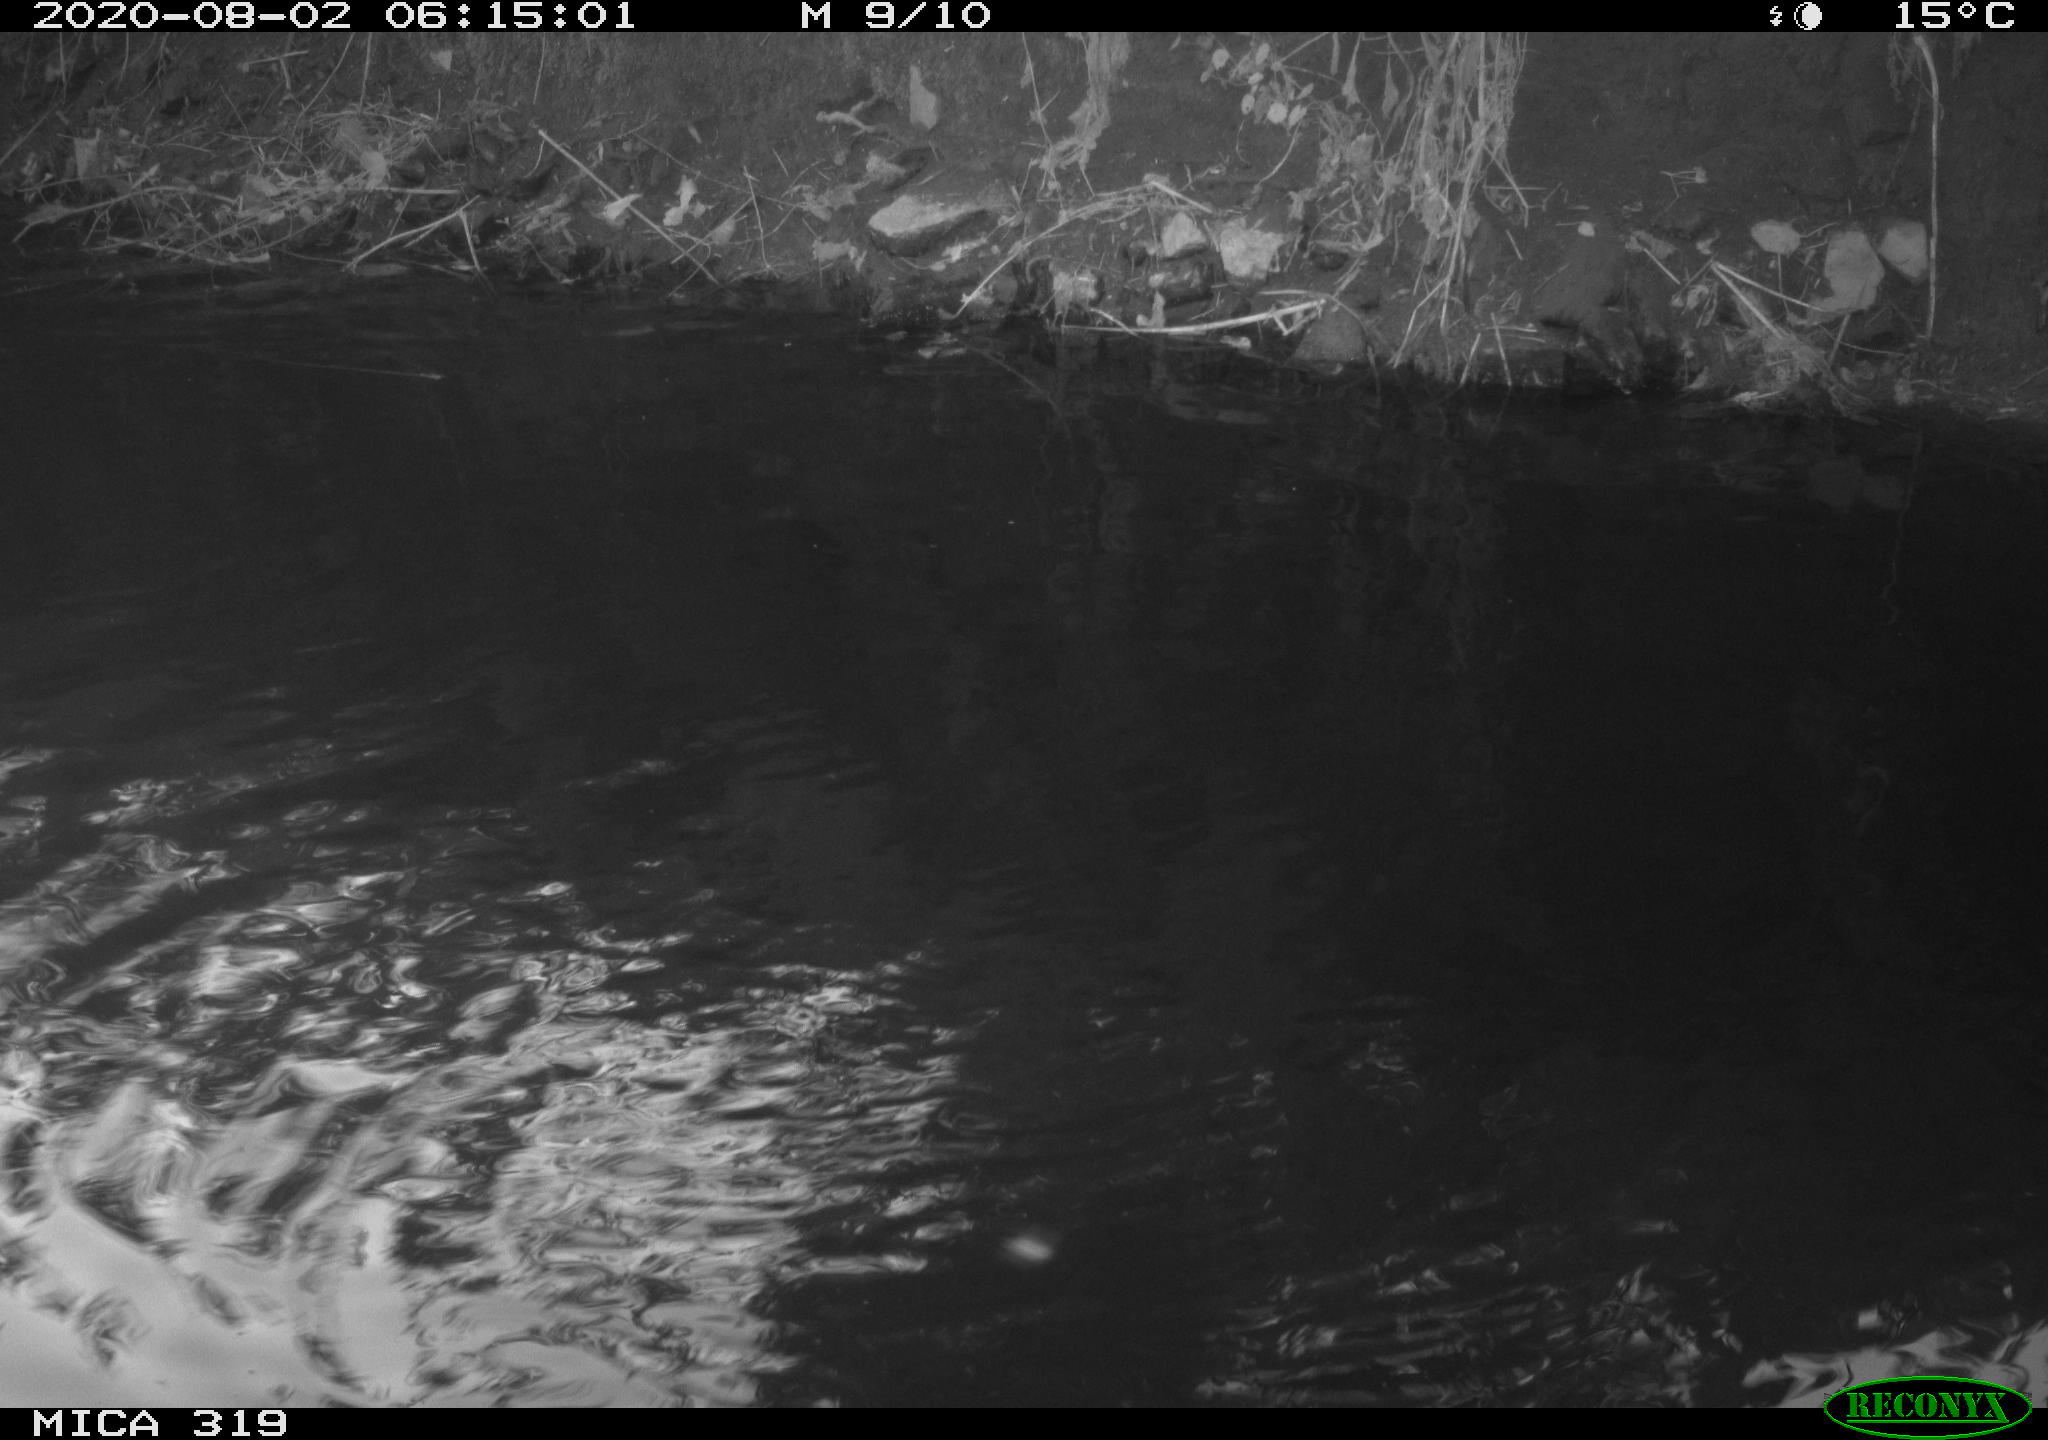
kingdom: Animalia
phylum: Chordata
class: Aves
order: Anseriformes
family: Anatidae
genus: Anas
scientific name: Anas platyrhynchos
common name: Mallard
